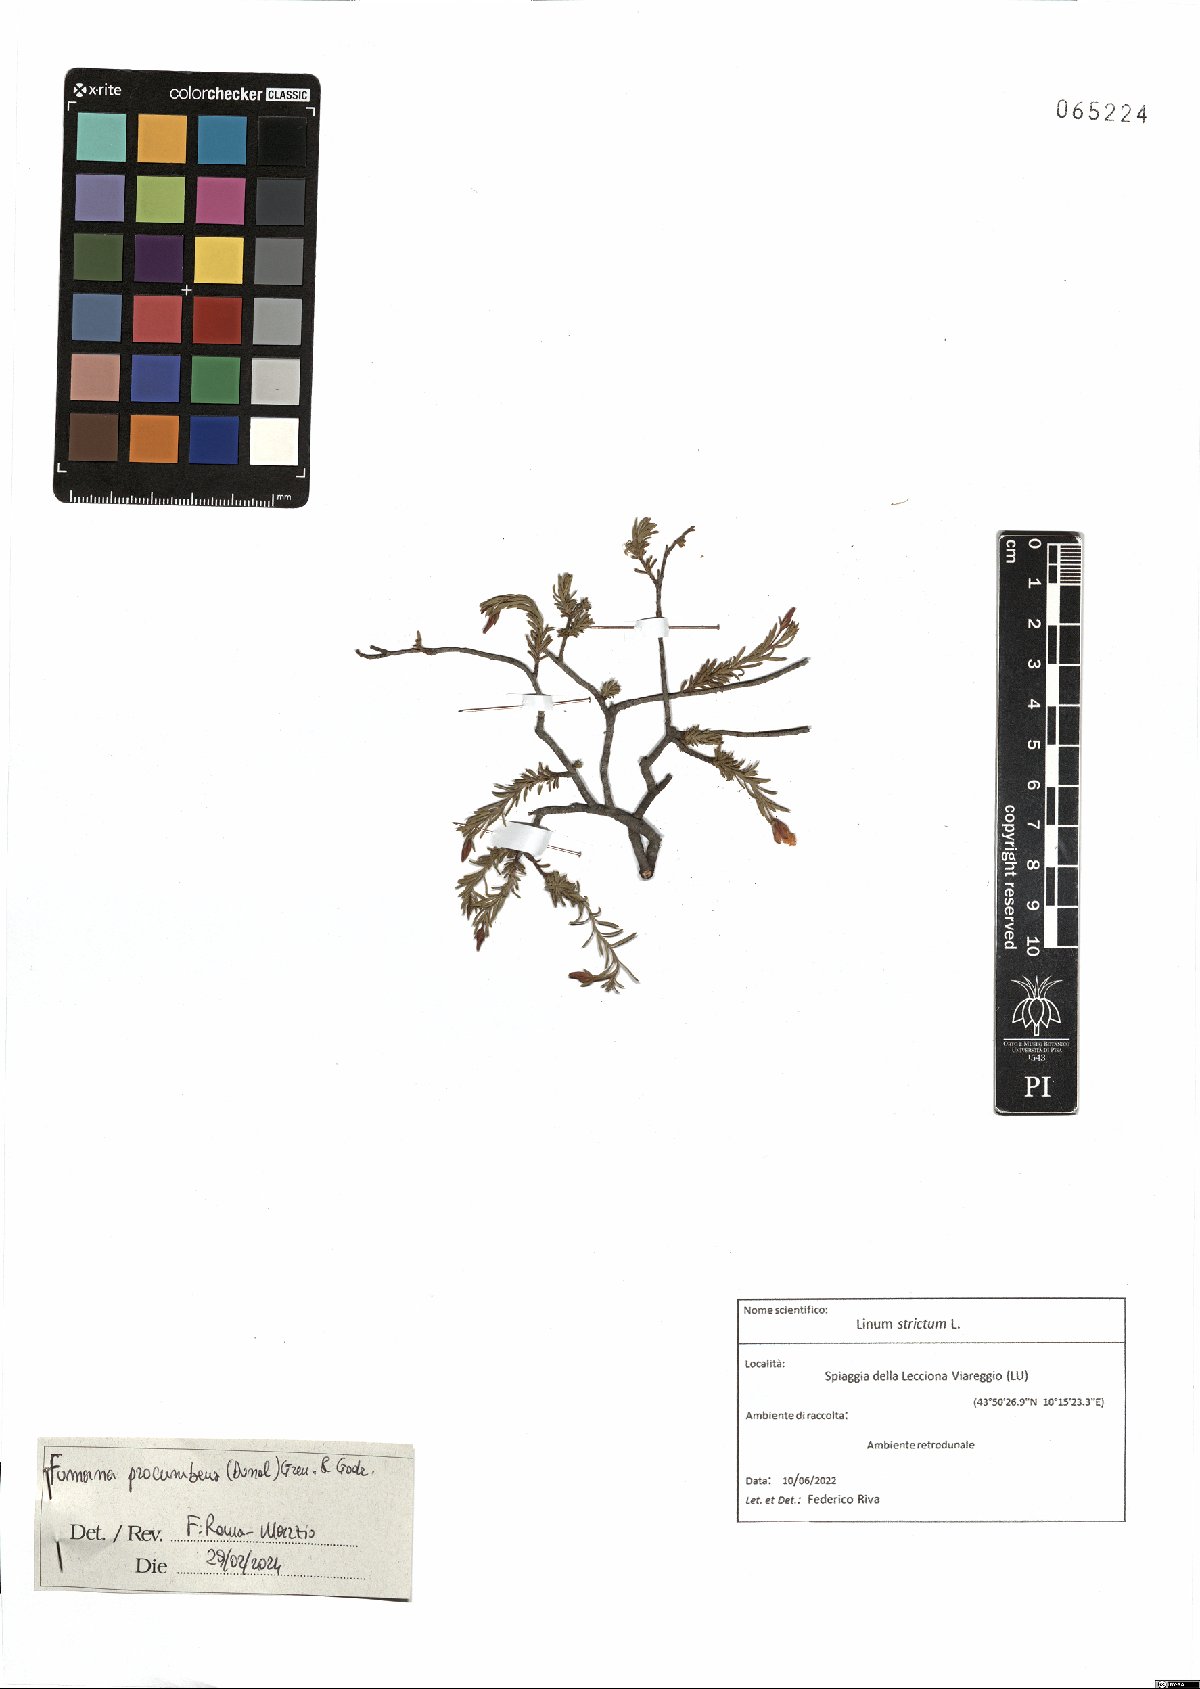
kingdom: Plantae
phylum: Tracheophyta
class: Magnoliopsida
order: Malvales
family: Cistaceae
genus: Fumana
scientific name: Fumana procumbens
